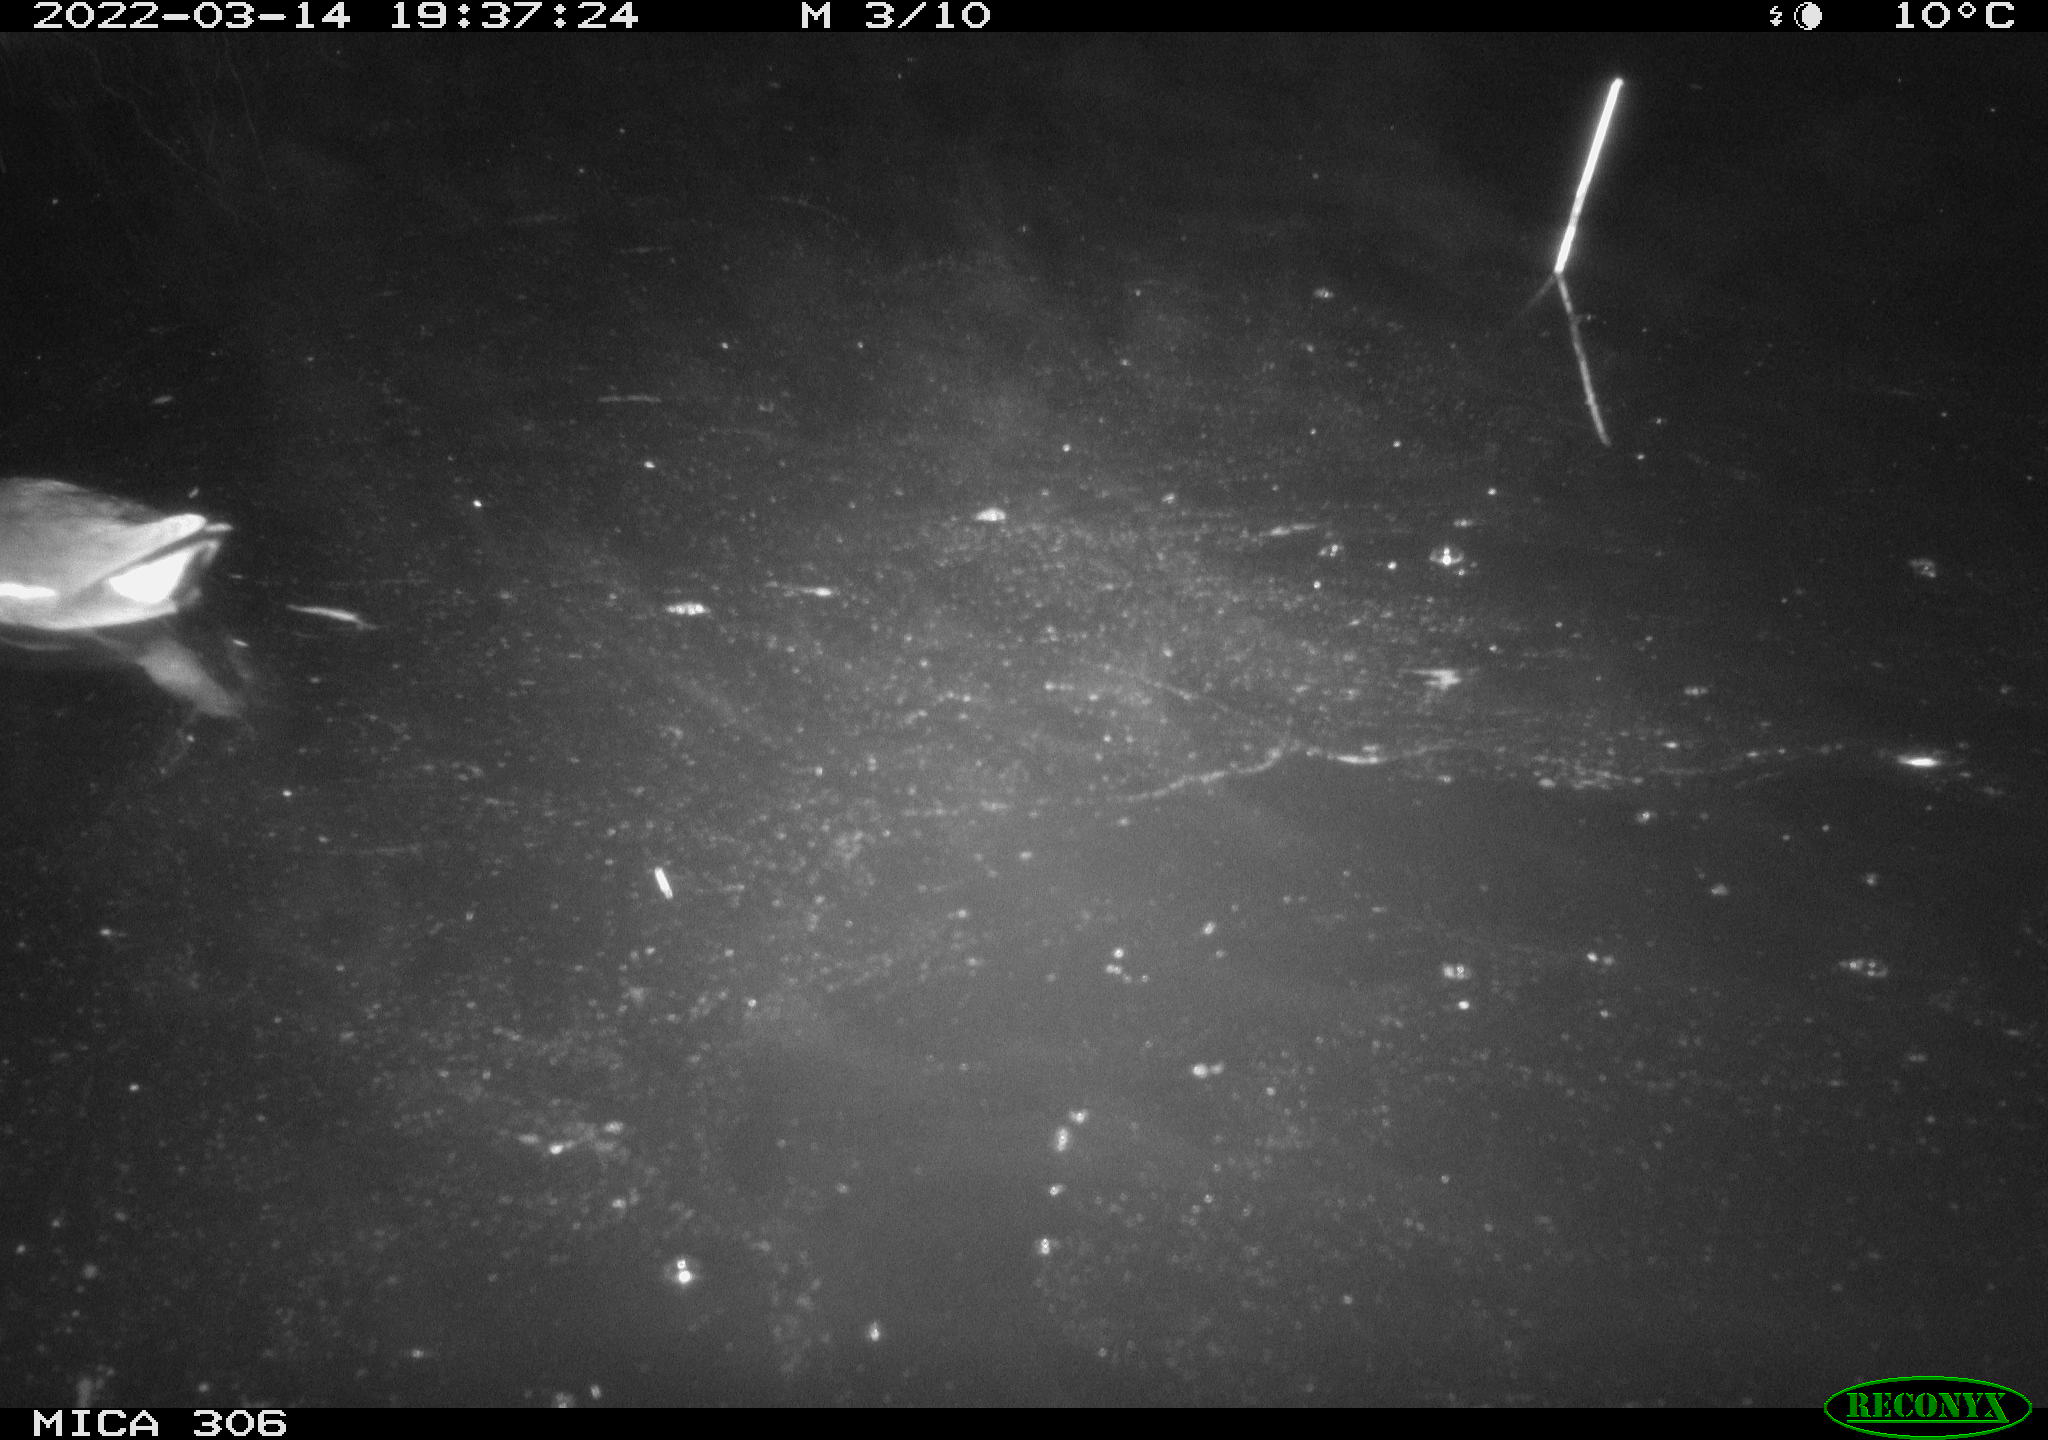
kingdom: Animalia
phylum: Chordata
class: Aves
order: Gruiformes
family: Rallidae
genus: Gallinula
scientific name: Gallinula chloropus
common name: Common moorhen
